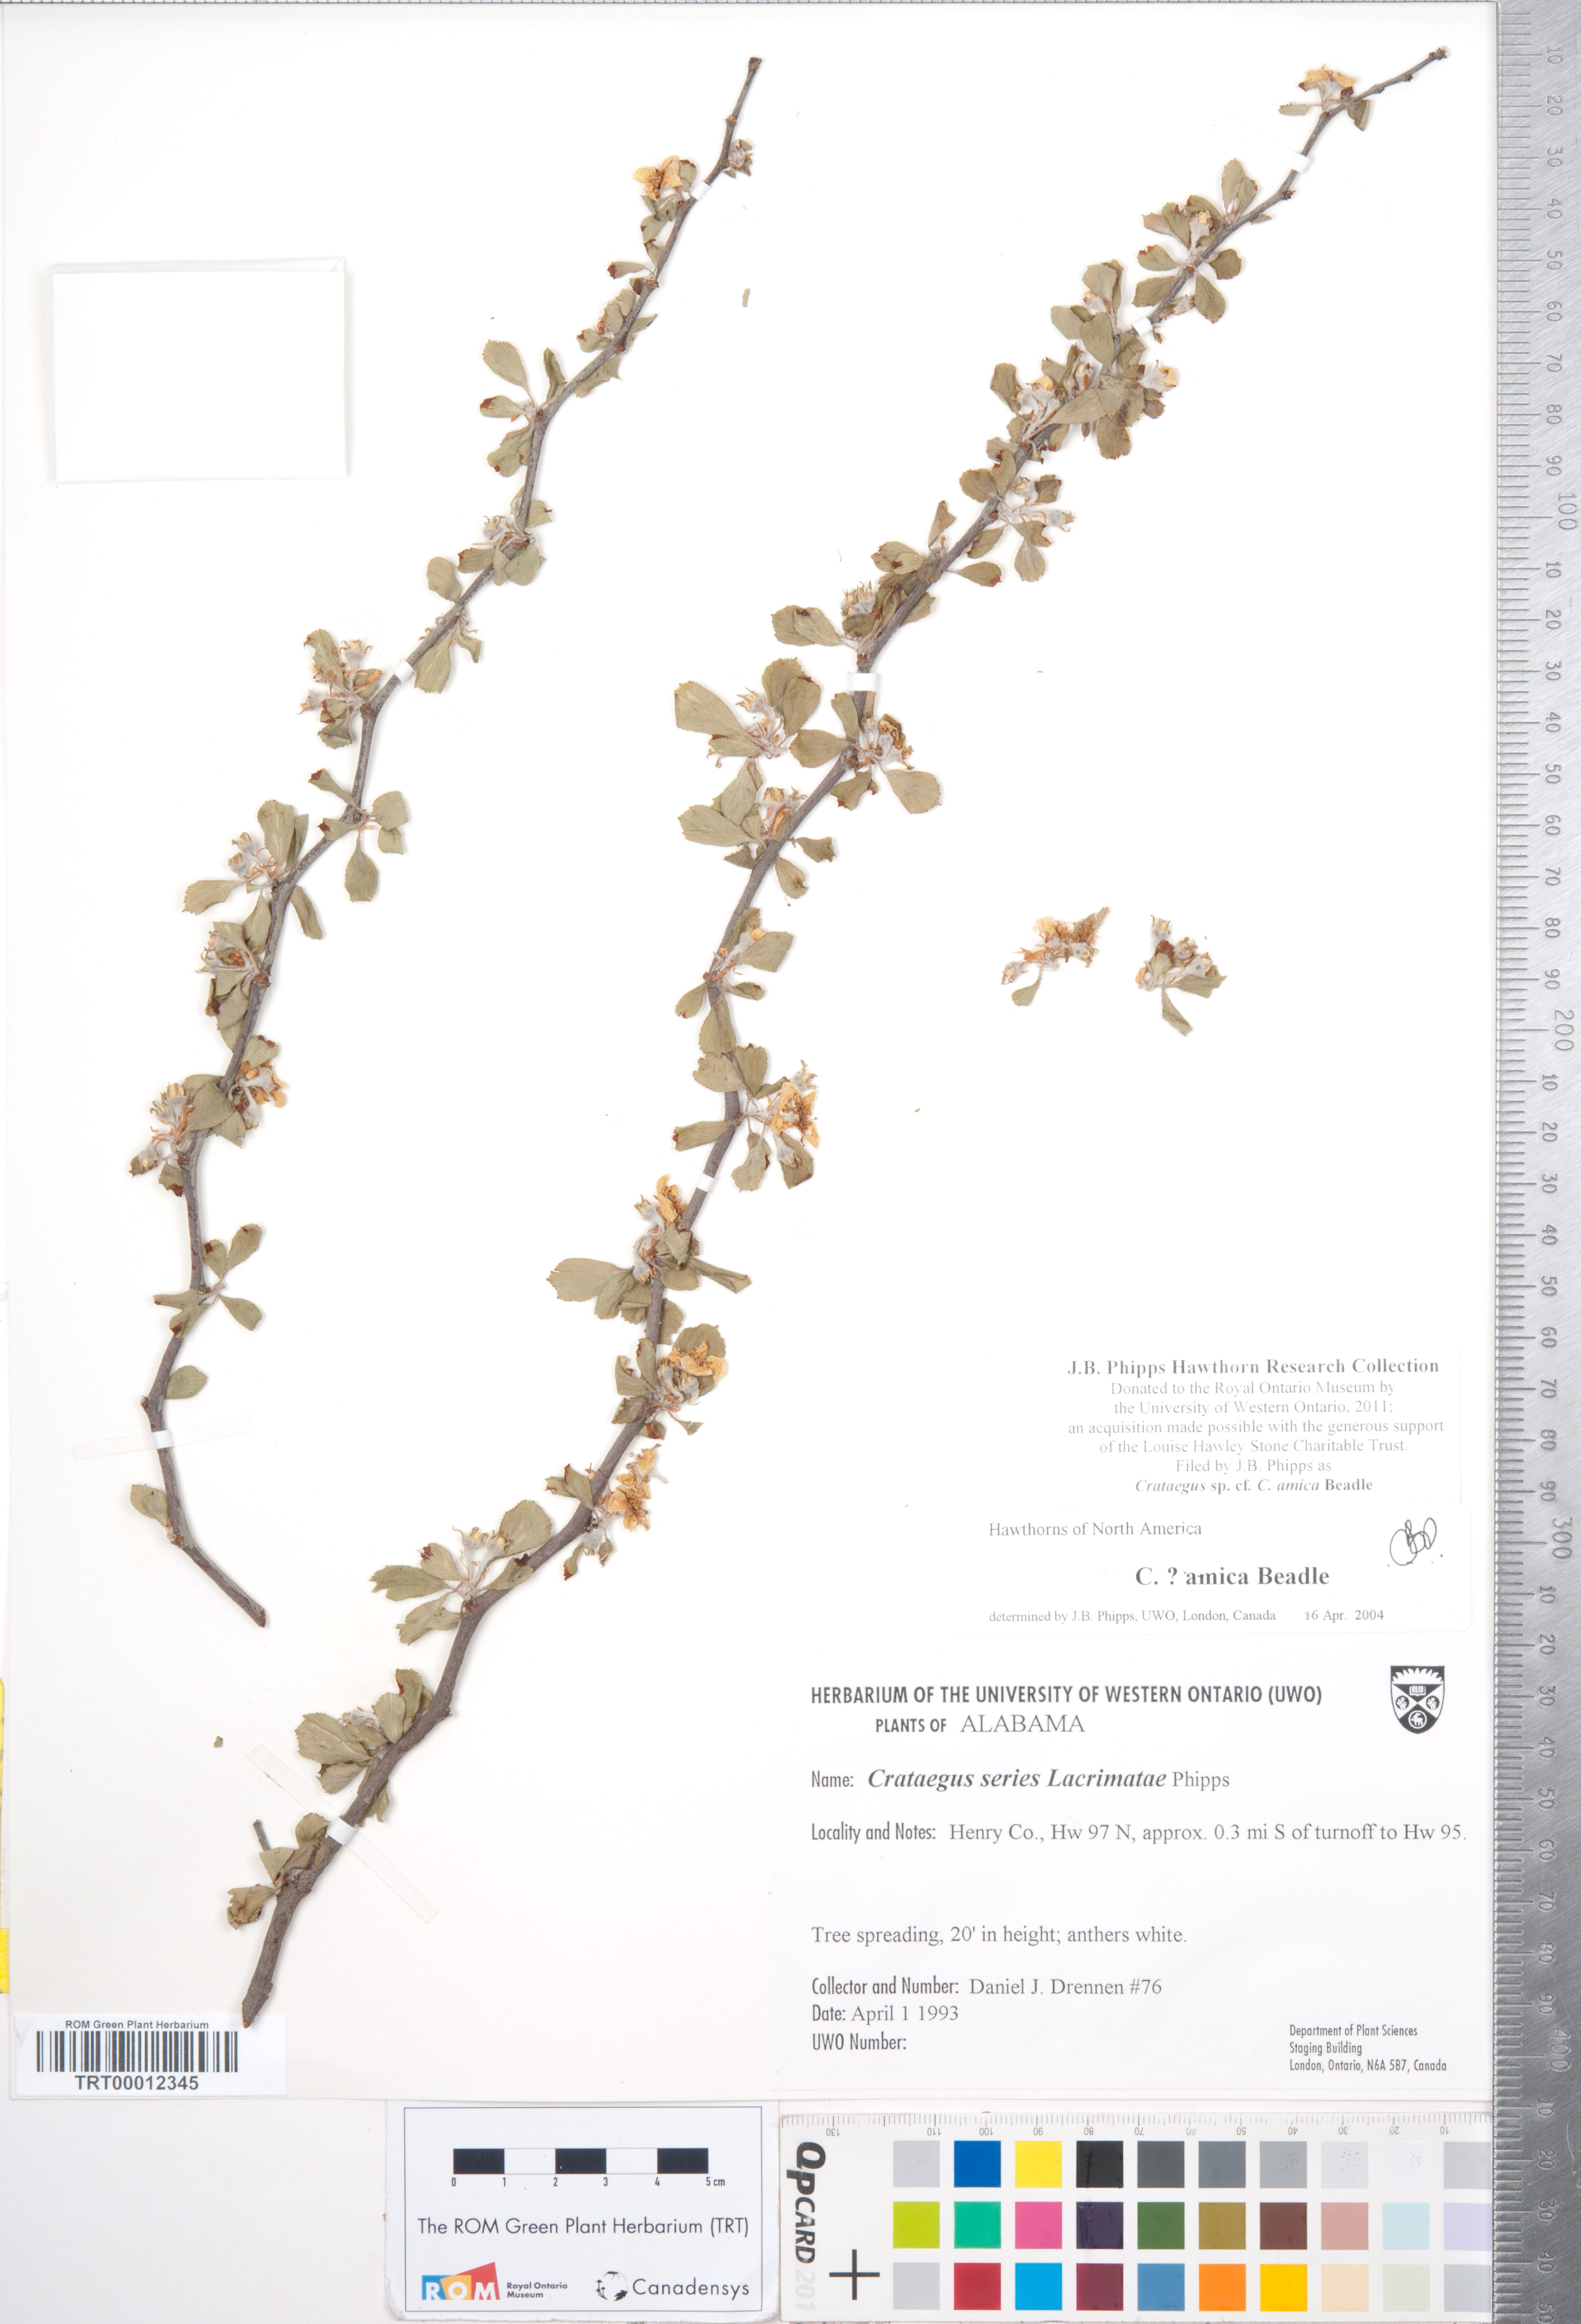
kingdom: Plantae
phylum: Tracheophyta
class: Magnoliopsida
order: Rosales
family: Rosaceae
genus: Crataegus
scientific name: Crataegus lassa
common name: Florida hawthorn
